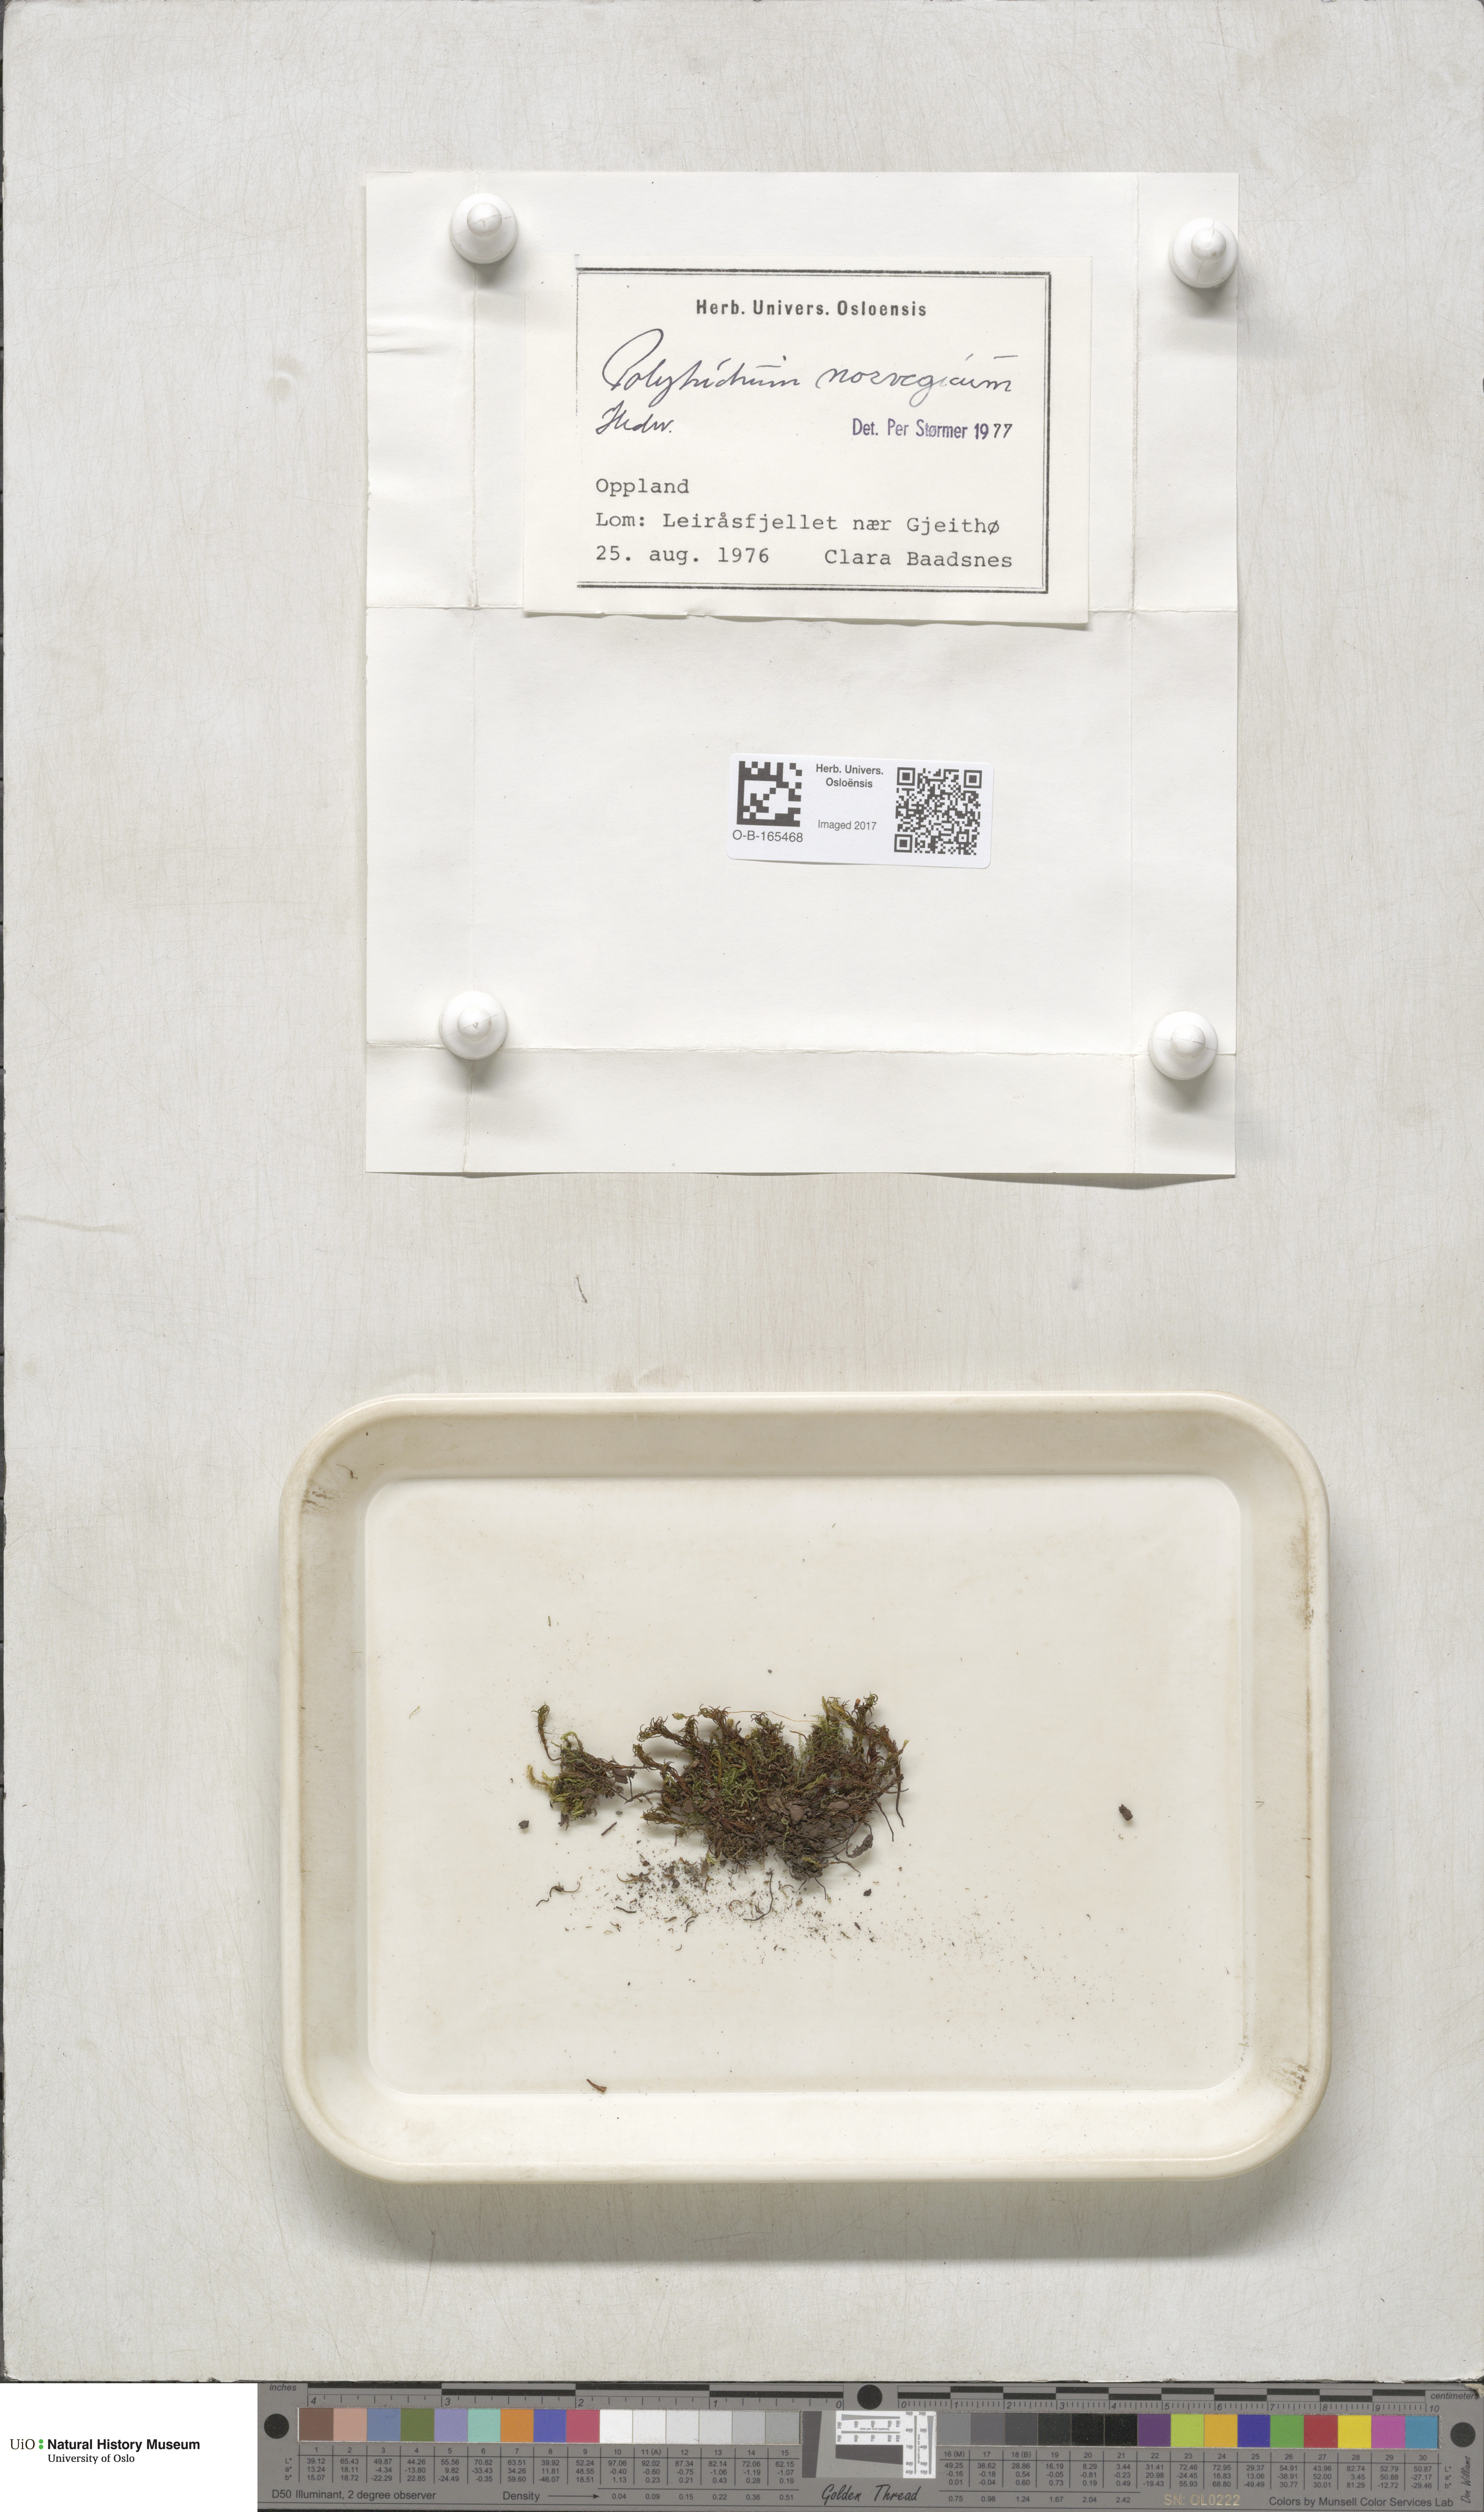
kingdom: Plantae
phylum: Bryophyta
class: Polytrichopsida
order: Polytrichales
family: Polytrichaceae
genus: Polytrichastrum
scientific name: Polytrichastrum sexangulare
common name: Northern haircap
